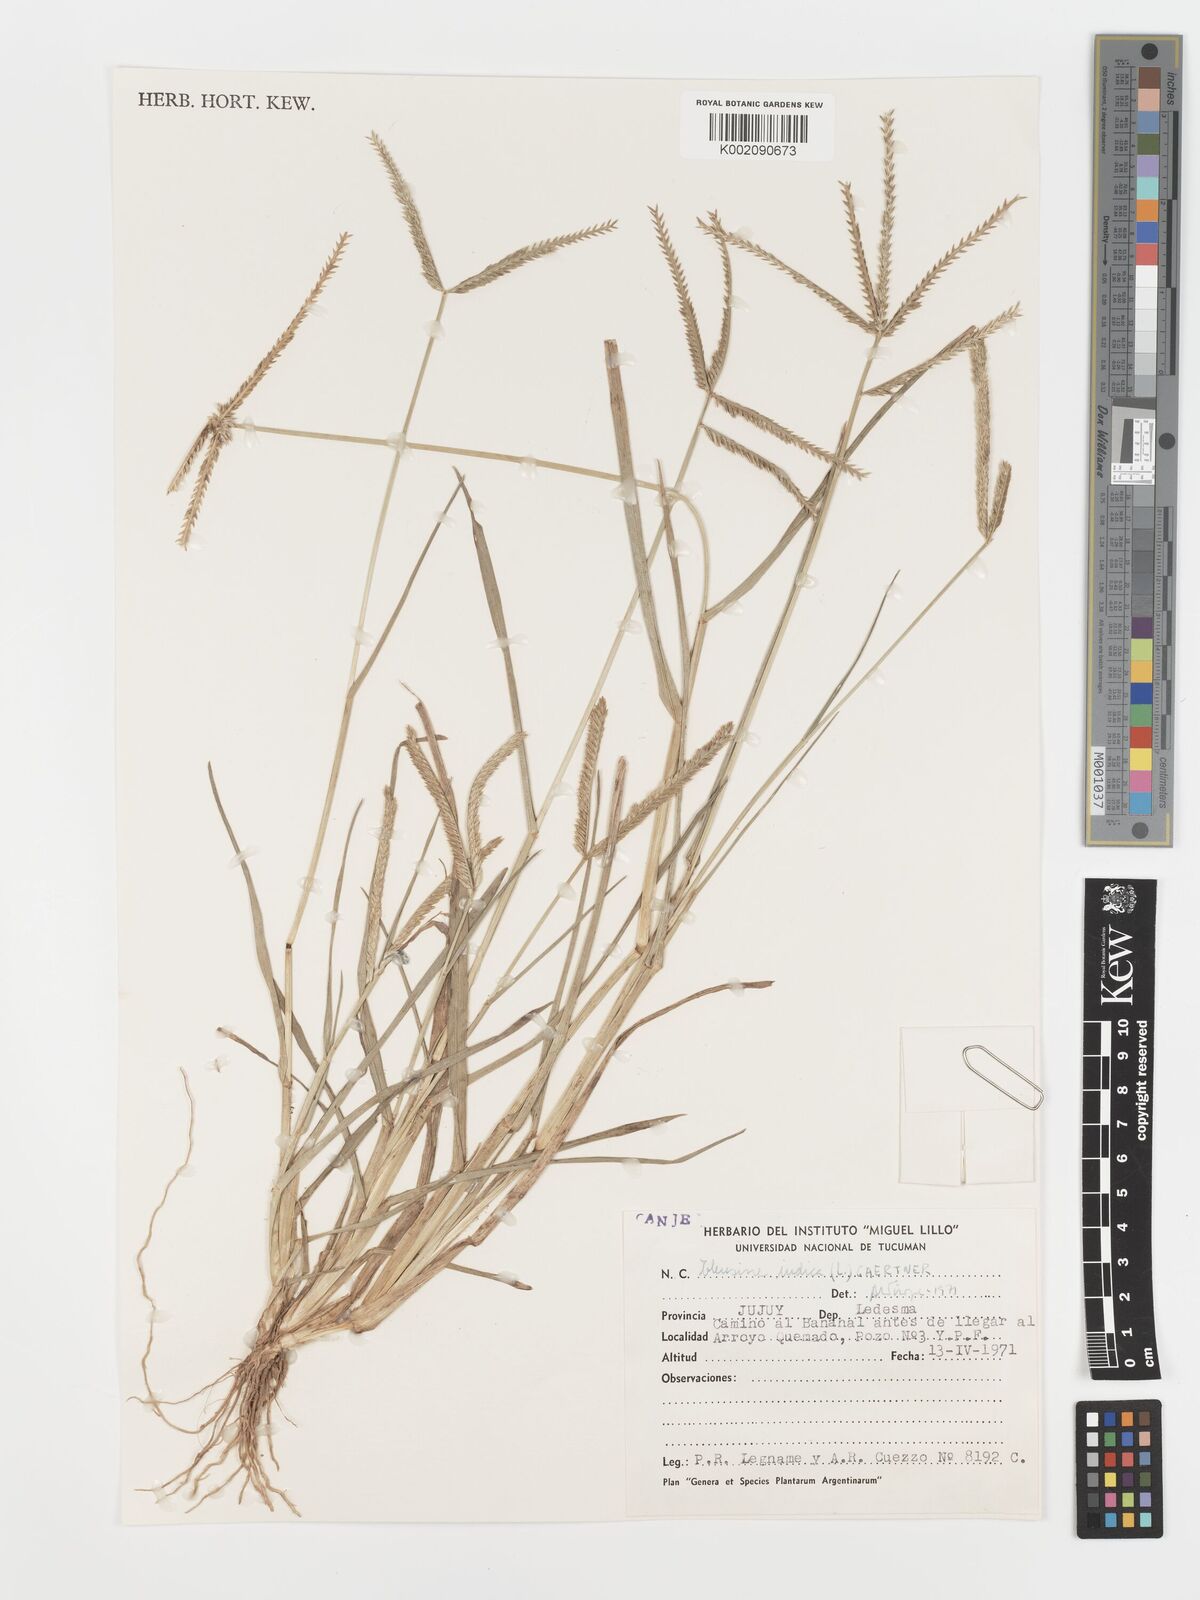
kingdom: Plantae
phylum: Tracheophyta
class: Liliopsida
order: Poales
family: Poaceae
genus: Eleusine
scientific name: Eleusine indica
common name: Yard-grass
